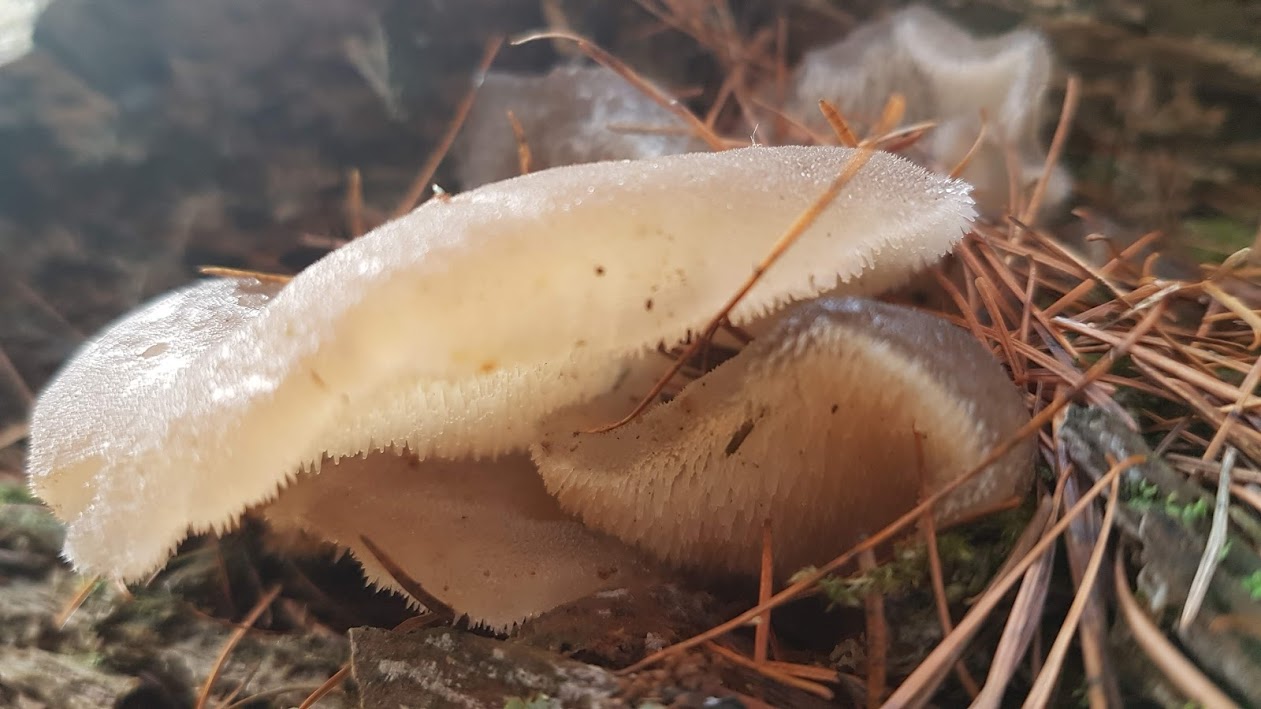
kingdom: Fungi
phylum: Basidiomycota
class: Agaricomycetes
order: Auriculariales
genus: Pseudohydnum
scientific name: Pseudohydnum gelatinosum
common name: bævretand
